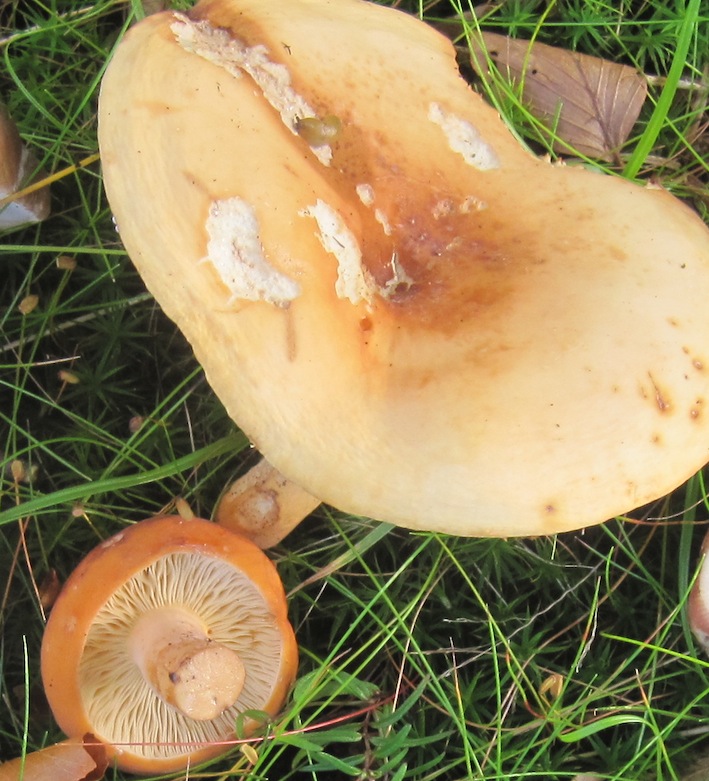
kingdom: Fungi
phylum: Basidiomycota
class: Agaricomycetes
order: Russulales
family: Russulaceae
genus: Lactifluus
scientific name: Lactifluus volemus
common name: spiselig mælkehat
